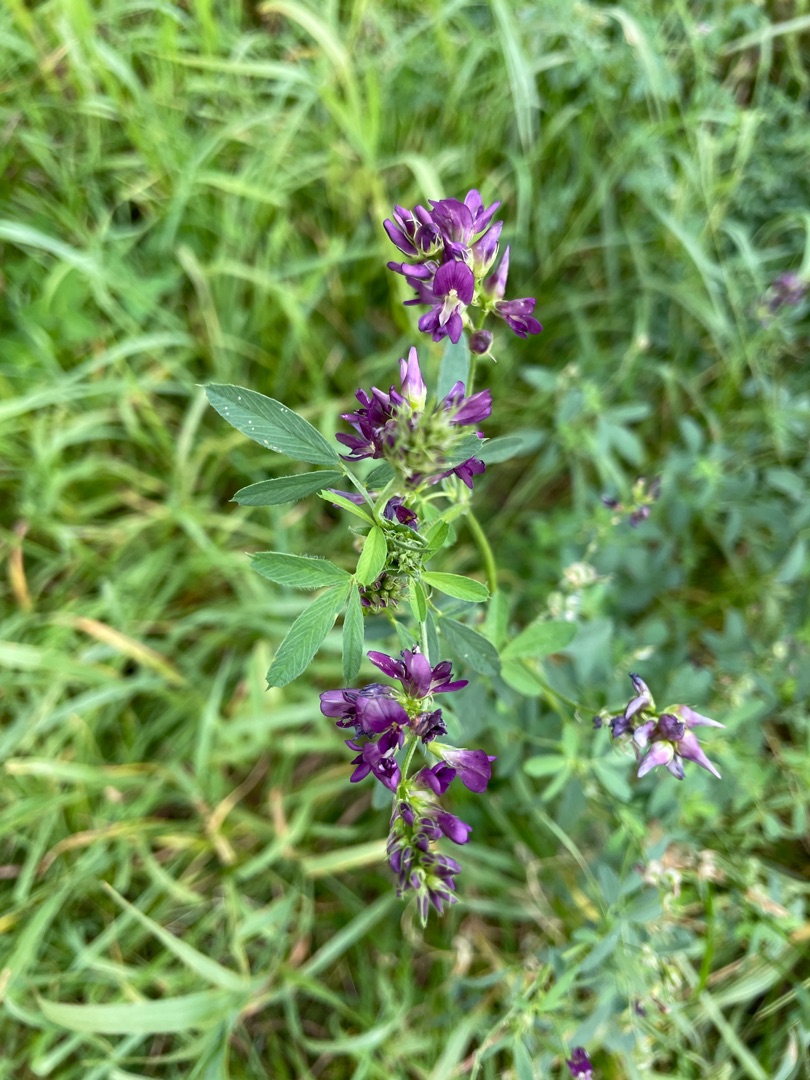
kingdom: Plantae
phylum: Tracheophyta
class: Magnoliopsida
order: Fabales
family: Fabaceae
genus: Medicago
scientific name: Medicago sativa
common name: Lucerne
